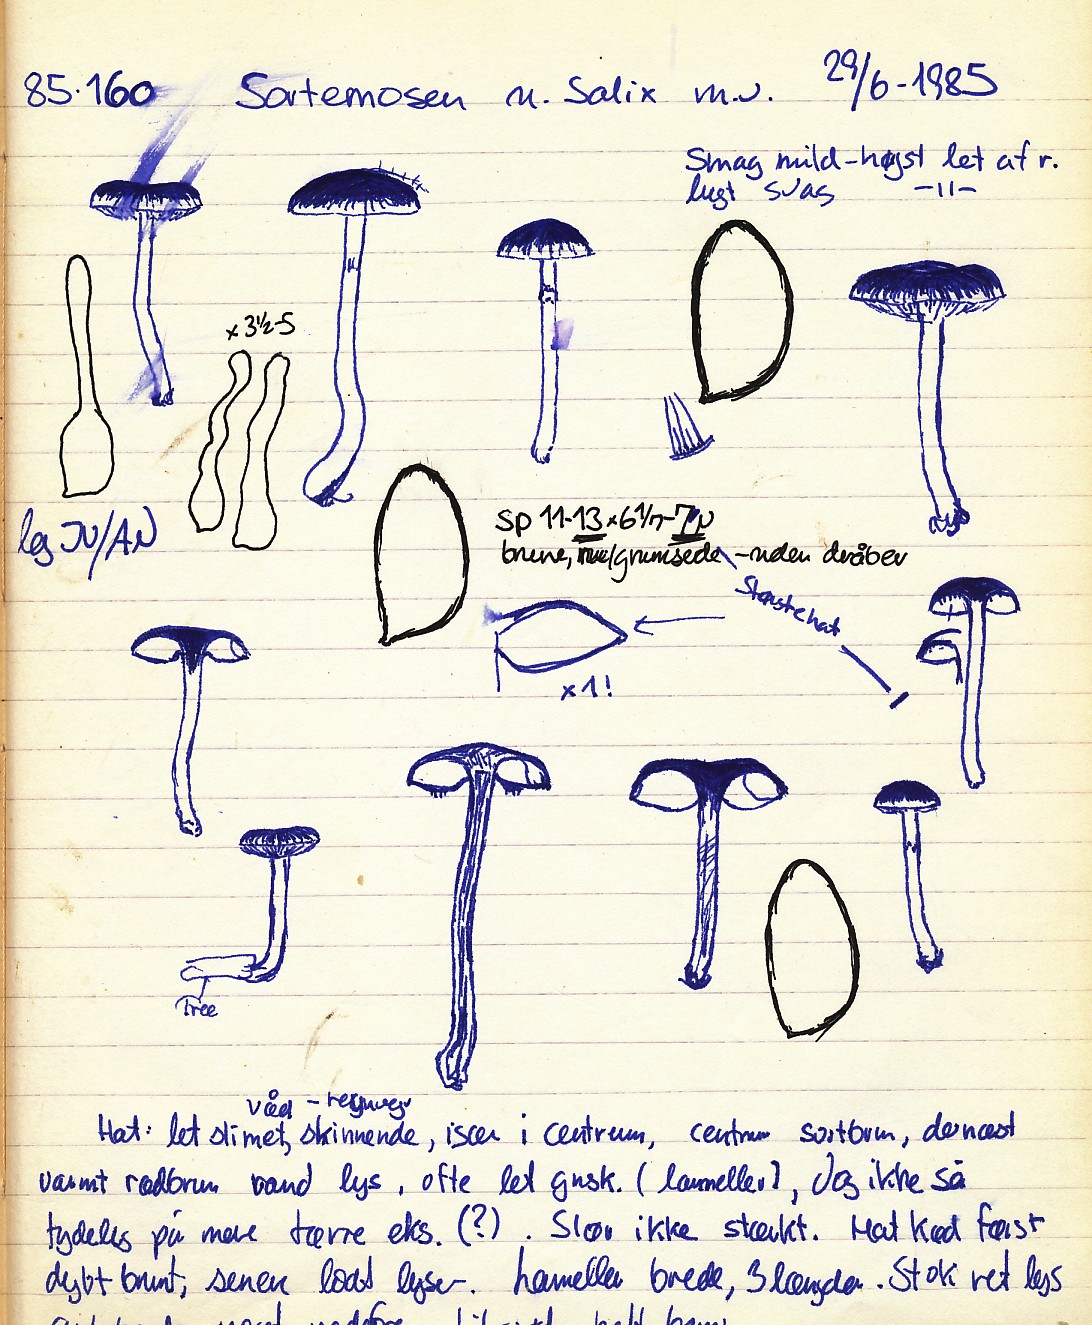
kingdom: Fungi
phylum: Basidiomycota
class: Agaricomycetes
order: Agaricales
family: Hymenogastraceae
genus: Hebeloma
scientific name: Hebeloma nigellum
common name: sortbrun tåreblad
